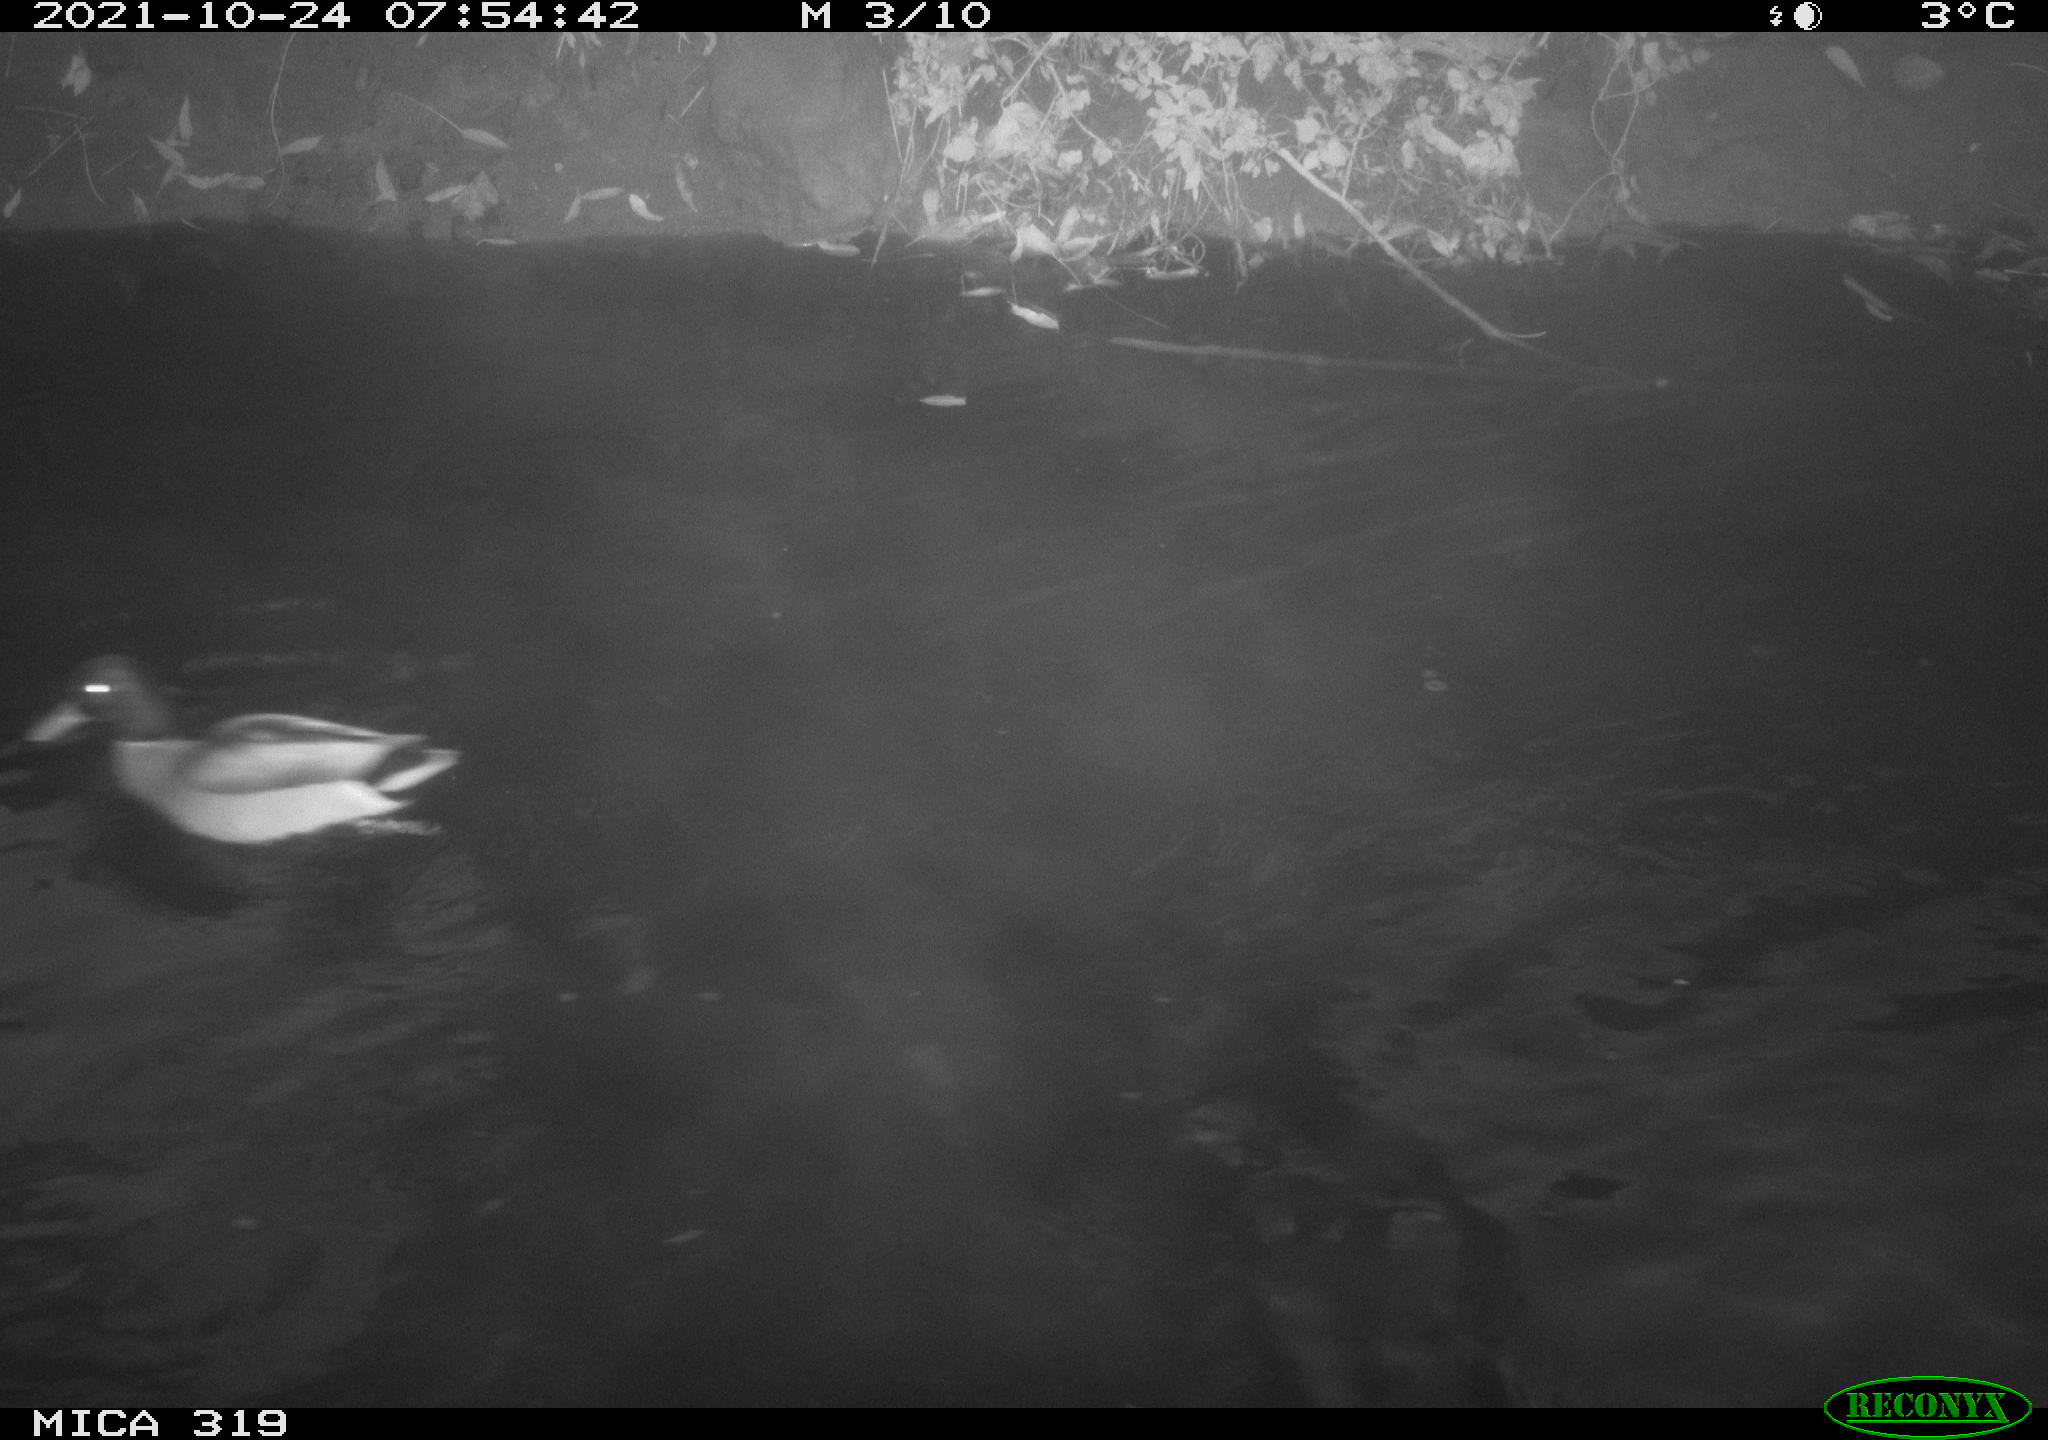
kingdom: Animalia
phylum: Chordata
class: Aves
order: Anseriformes
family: Anatidae
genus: Anas
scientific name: Anas platyrhynchos
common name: Mallard
